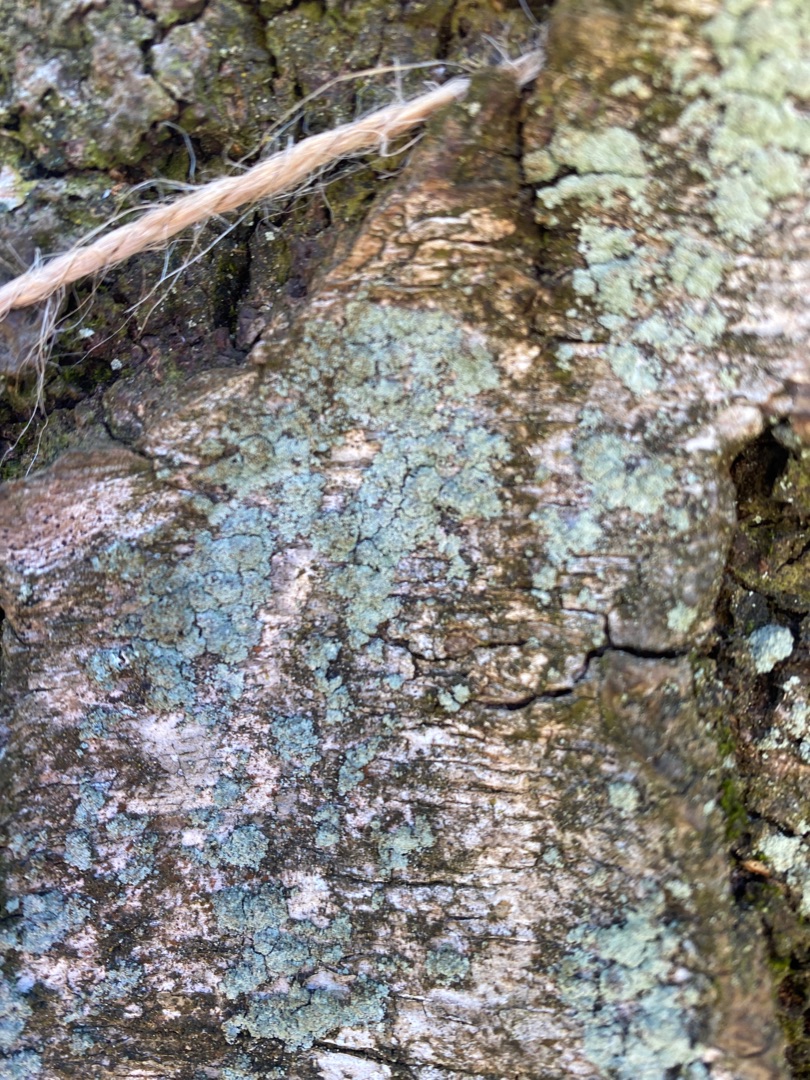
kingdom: Fungi
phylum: Ascomycota
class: Lecanoromycetes
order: Lecanorales
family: Stereocaulaceae
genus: Lepraria
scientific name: Lepraria
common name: Støvlav
